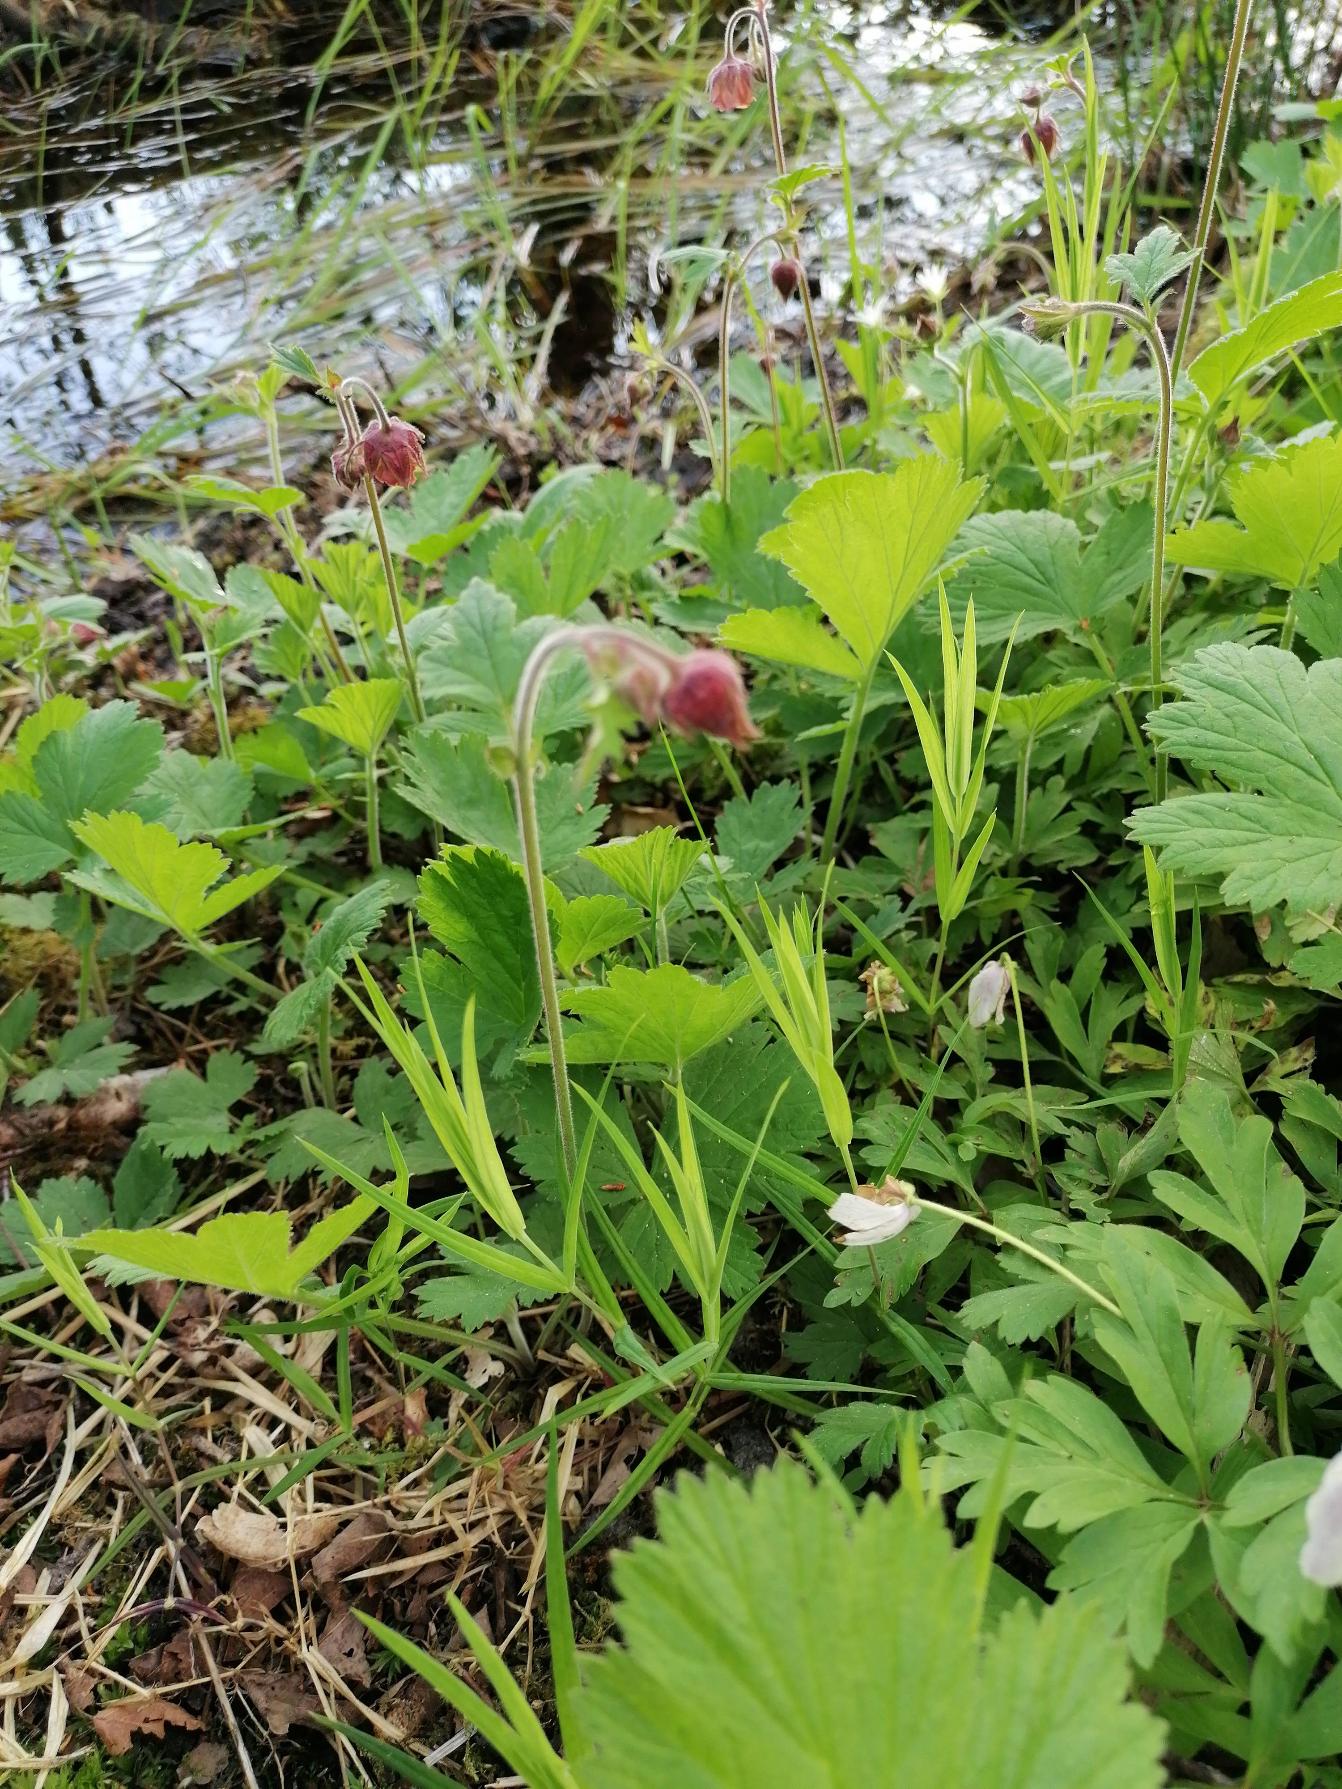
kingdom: Plantae
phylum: Tracheophyta
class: Magnoliopsida
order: Rosales
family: Rosaceae
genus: Geum
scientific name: Geum rivale
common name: Eng-nellikerod
